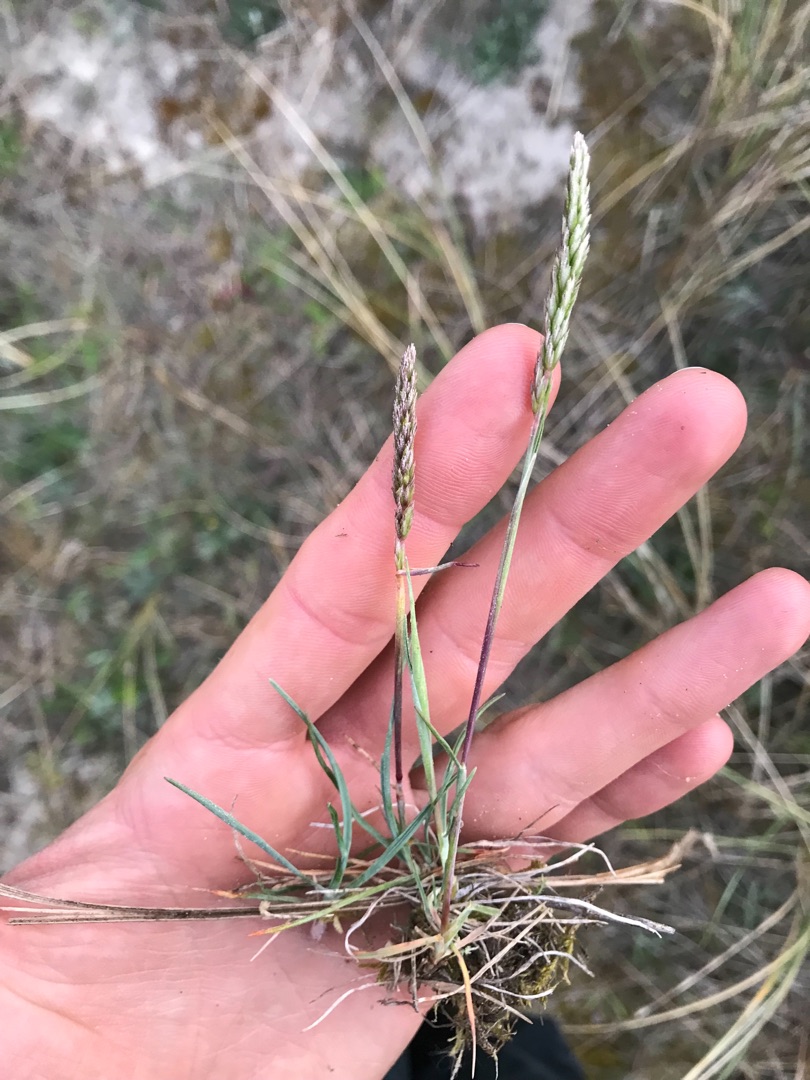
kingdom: Plantae
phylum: Tracheophyta
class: Liliopsida
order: Poales
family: Poaceae
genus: Koeleria
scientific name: Koeleria glauca
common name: Klit-kambunke
